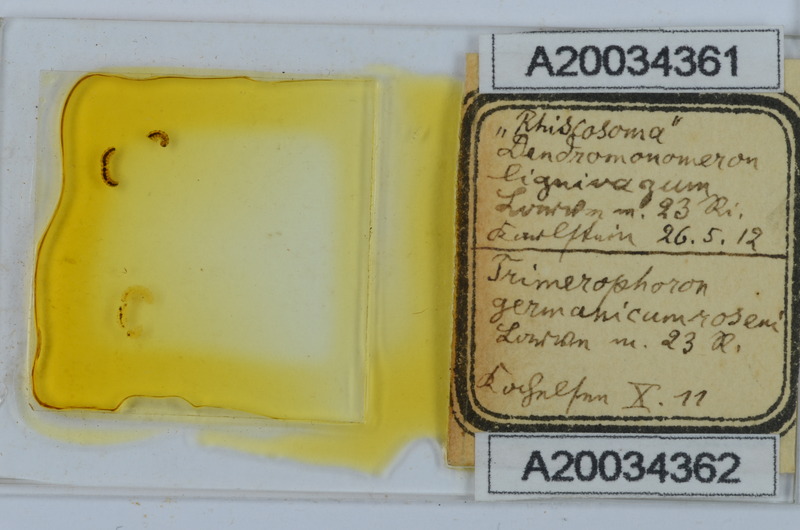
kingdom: Animalia
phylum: Arthropoda
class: Diplopoda
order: Chordeumatida
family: Attemsiidae
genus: Dendromonomeron
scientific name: Dendromonomeron lignivagum
